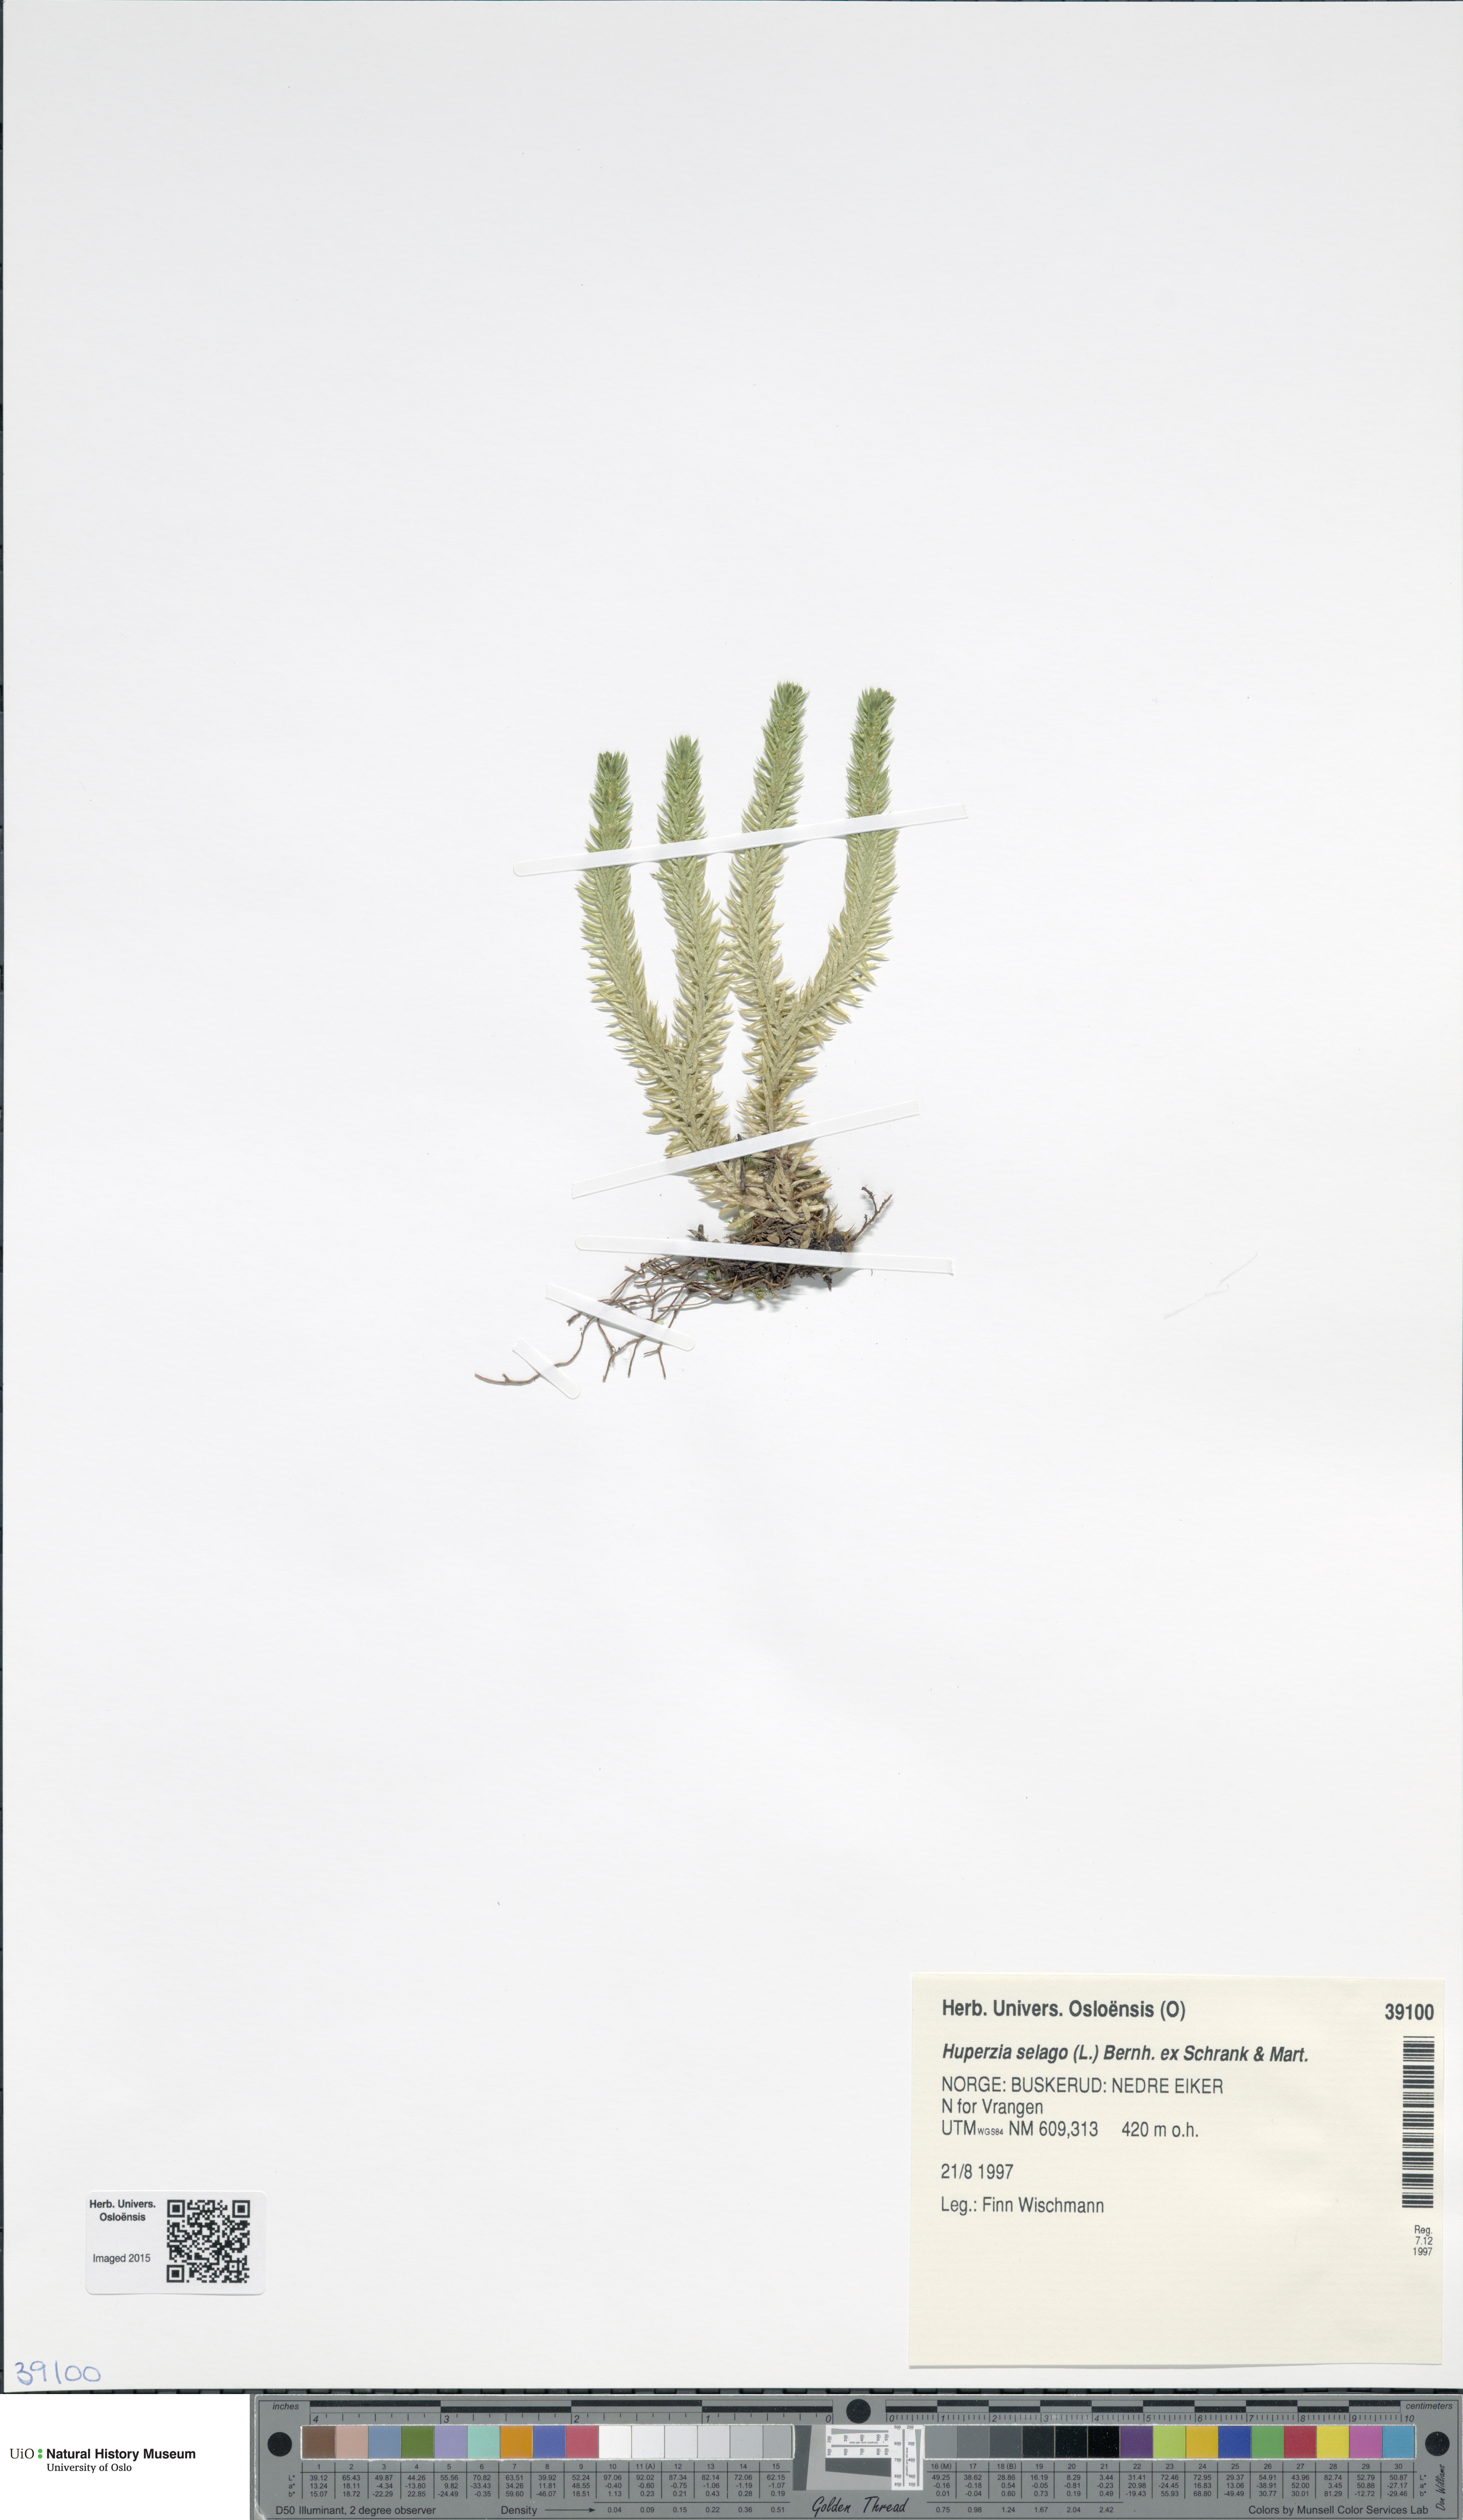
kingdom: Plantae
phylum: Tracheophyta
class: Lycopodiopsida
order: Lycopodiales
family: Lycopodiaceae
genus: Huperzia
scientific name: Huperzia selago
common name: Northern firmoss
